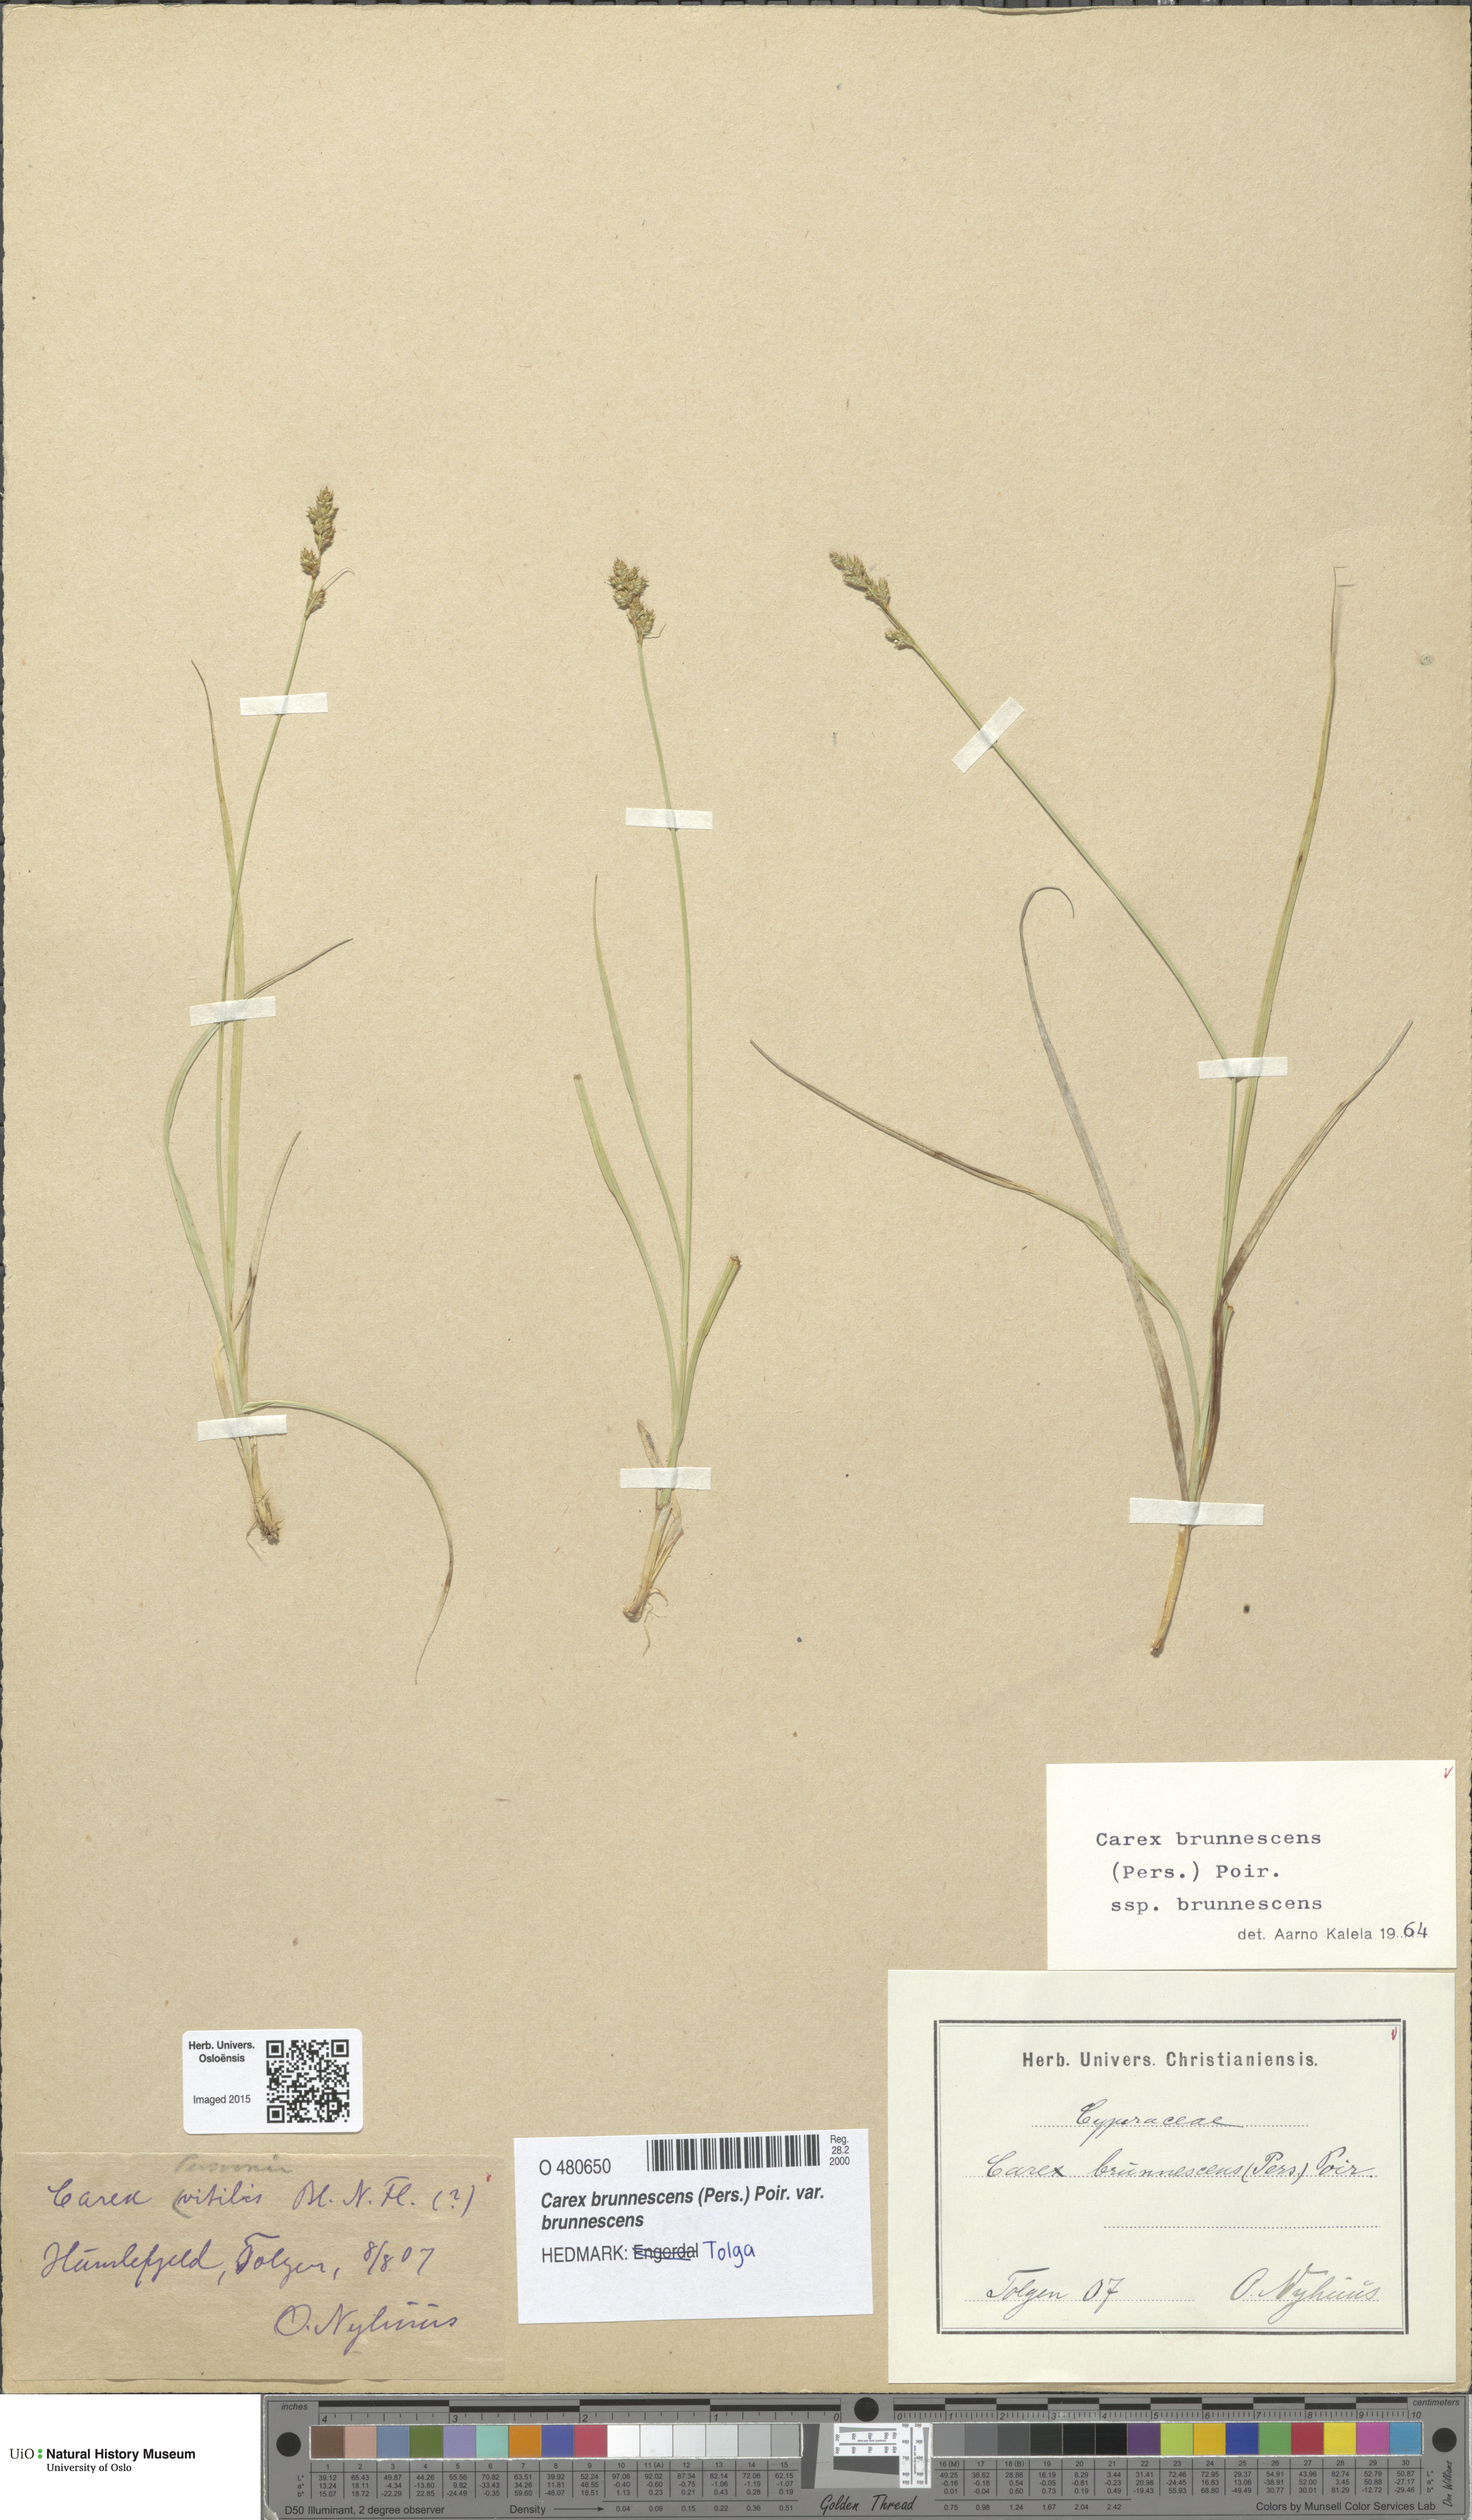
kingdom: Plantae
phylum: Tracheophyta
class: Liliopsida
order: Poales
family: Cyperaceae
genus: Carex
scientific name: Carex brunnescens
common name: Brown sedge
